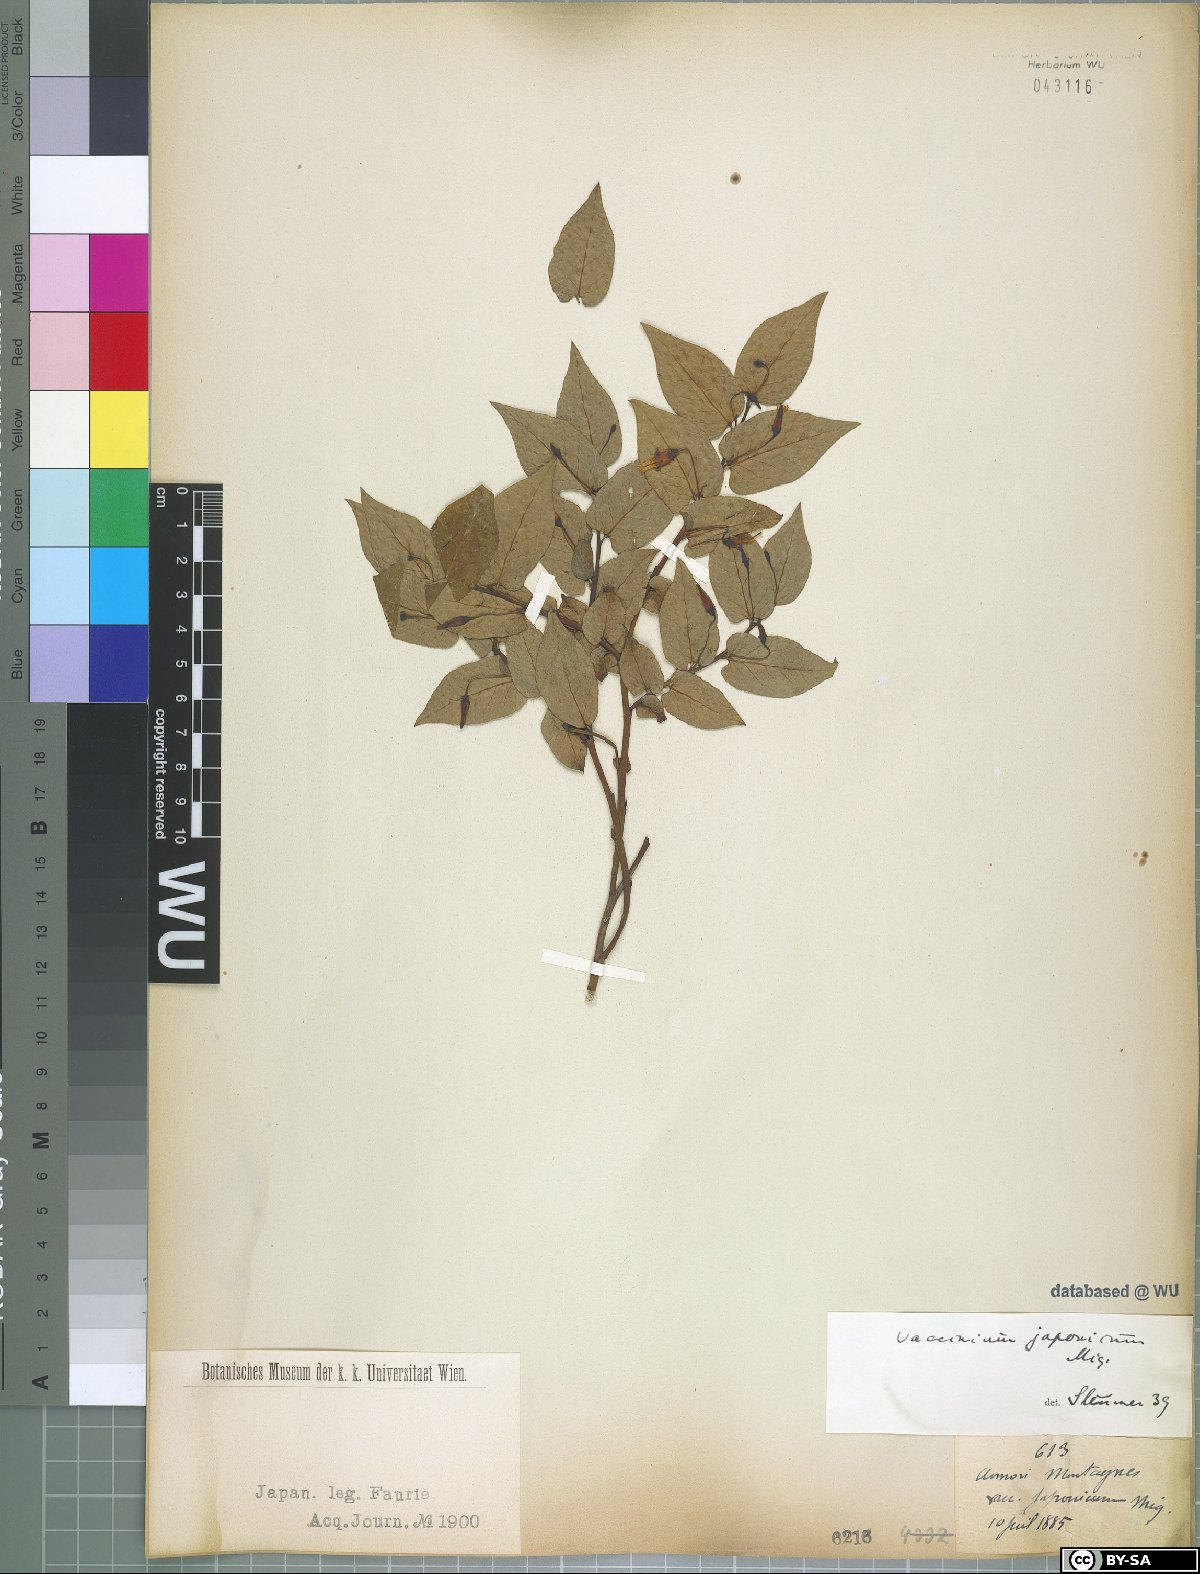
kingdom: Plantae
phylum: Tracheophyta
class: Magnoliopsida
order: Ericales
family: Ericaceae
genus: Vaccinium
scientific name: Vaccinium japonicum
